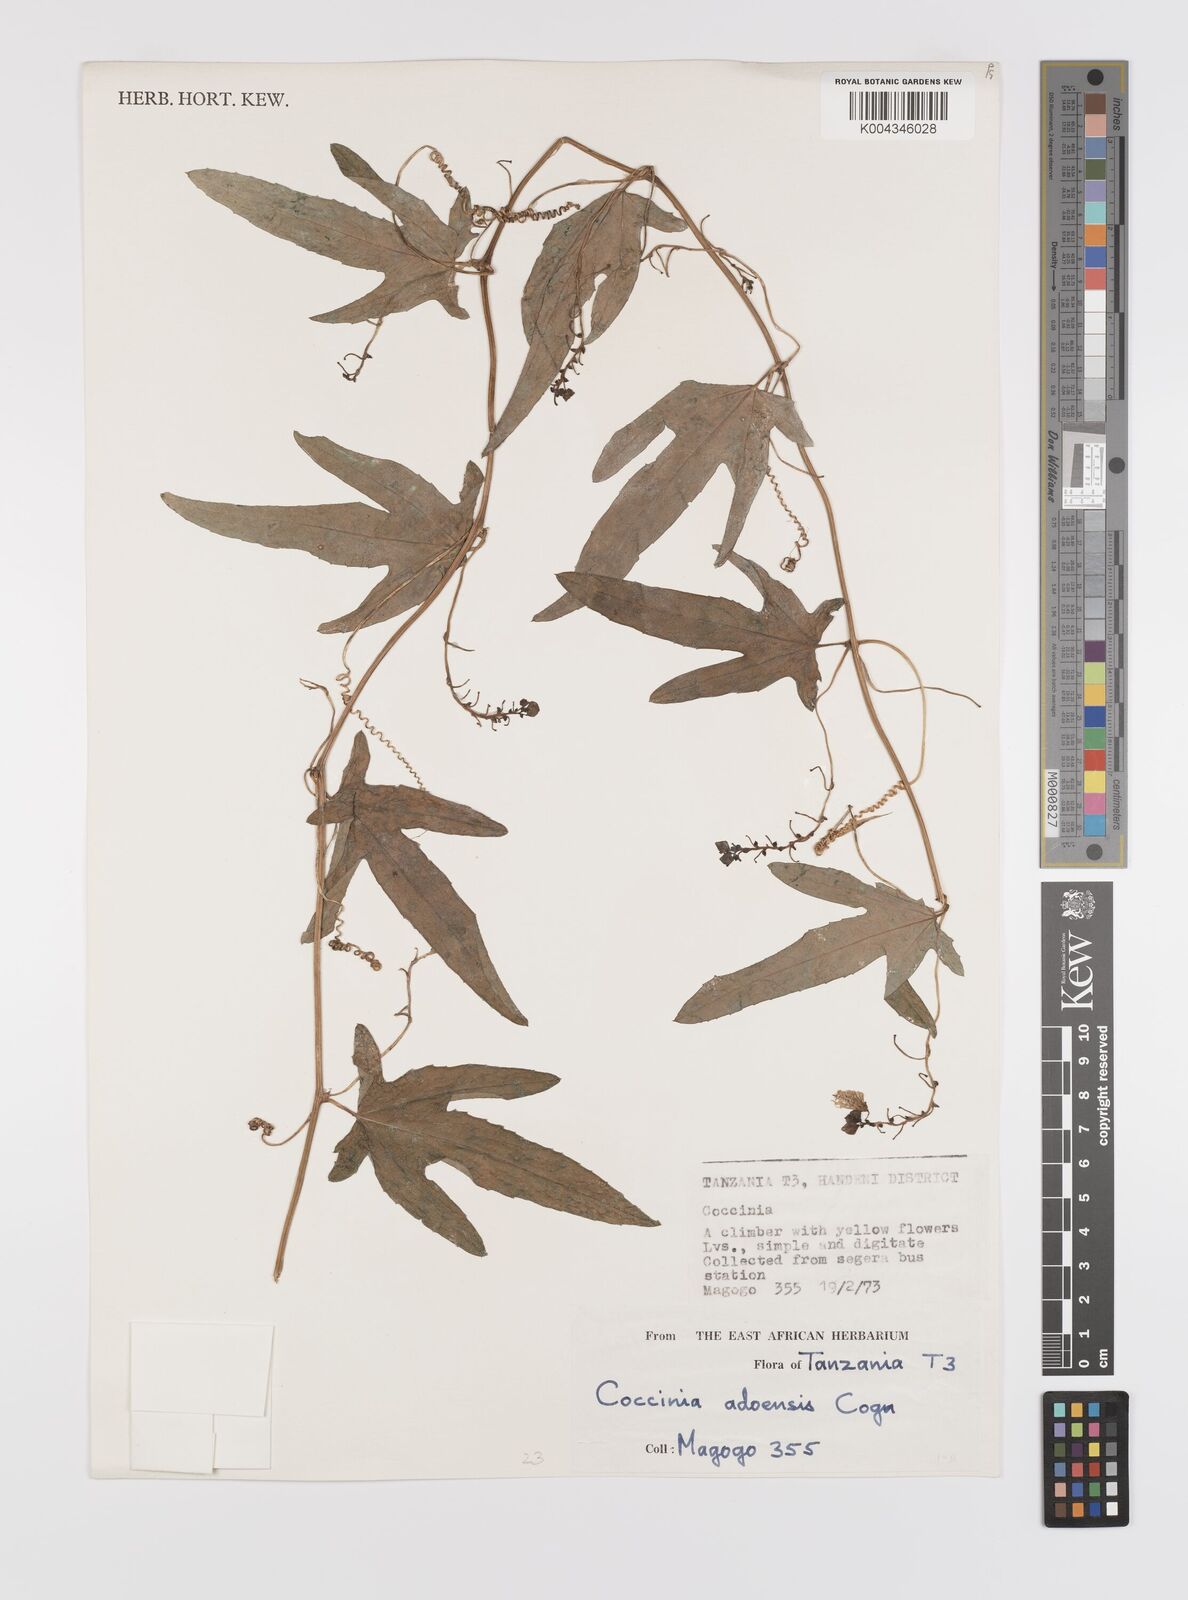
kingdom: Plantae
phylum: Tracheophyta
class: Magnoliopsida
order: Cucurbitales
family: Cucurbitaceae
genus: Coccinia
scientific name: Coccinia adoensis
